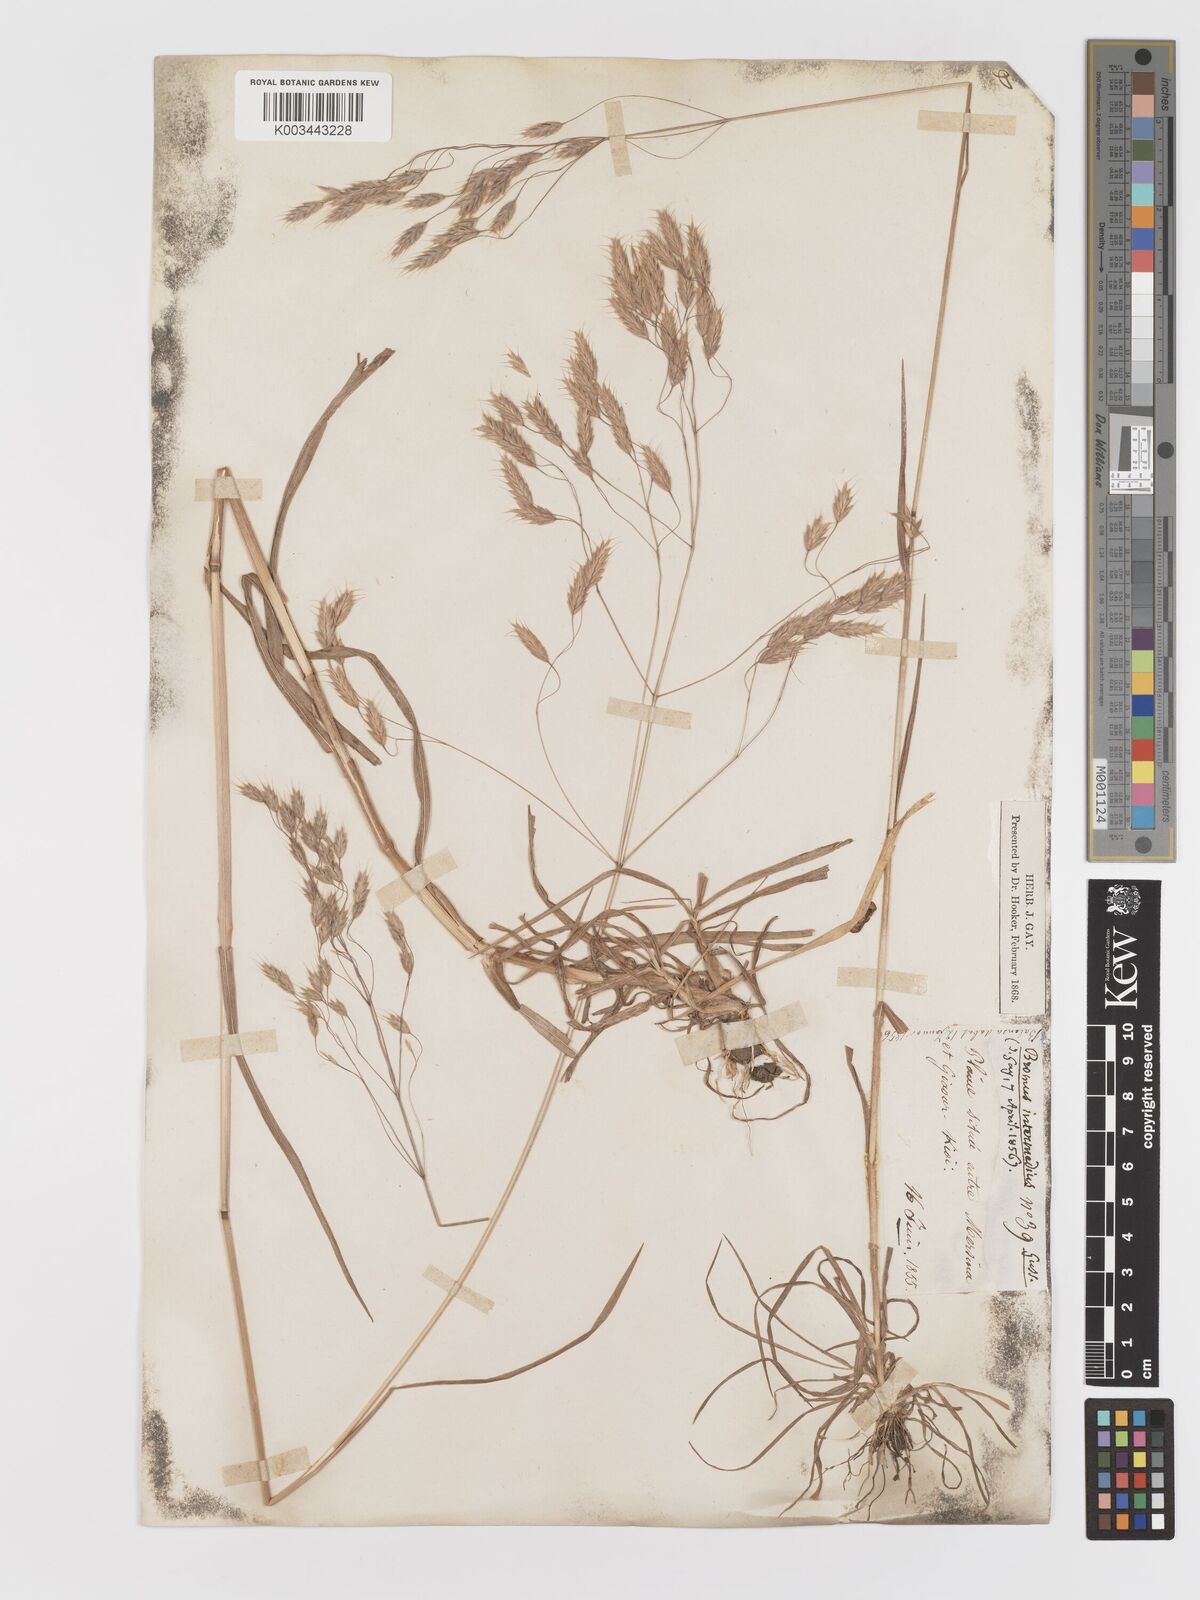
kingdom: Plantae
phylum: Tracheophyta
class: Liliopsida
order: Poales
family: Poaceae
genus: Bromus
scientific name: Bromus
